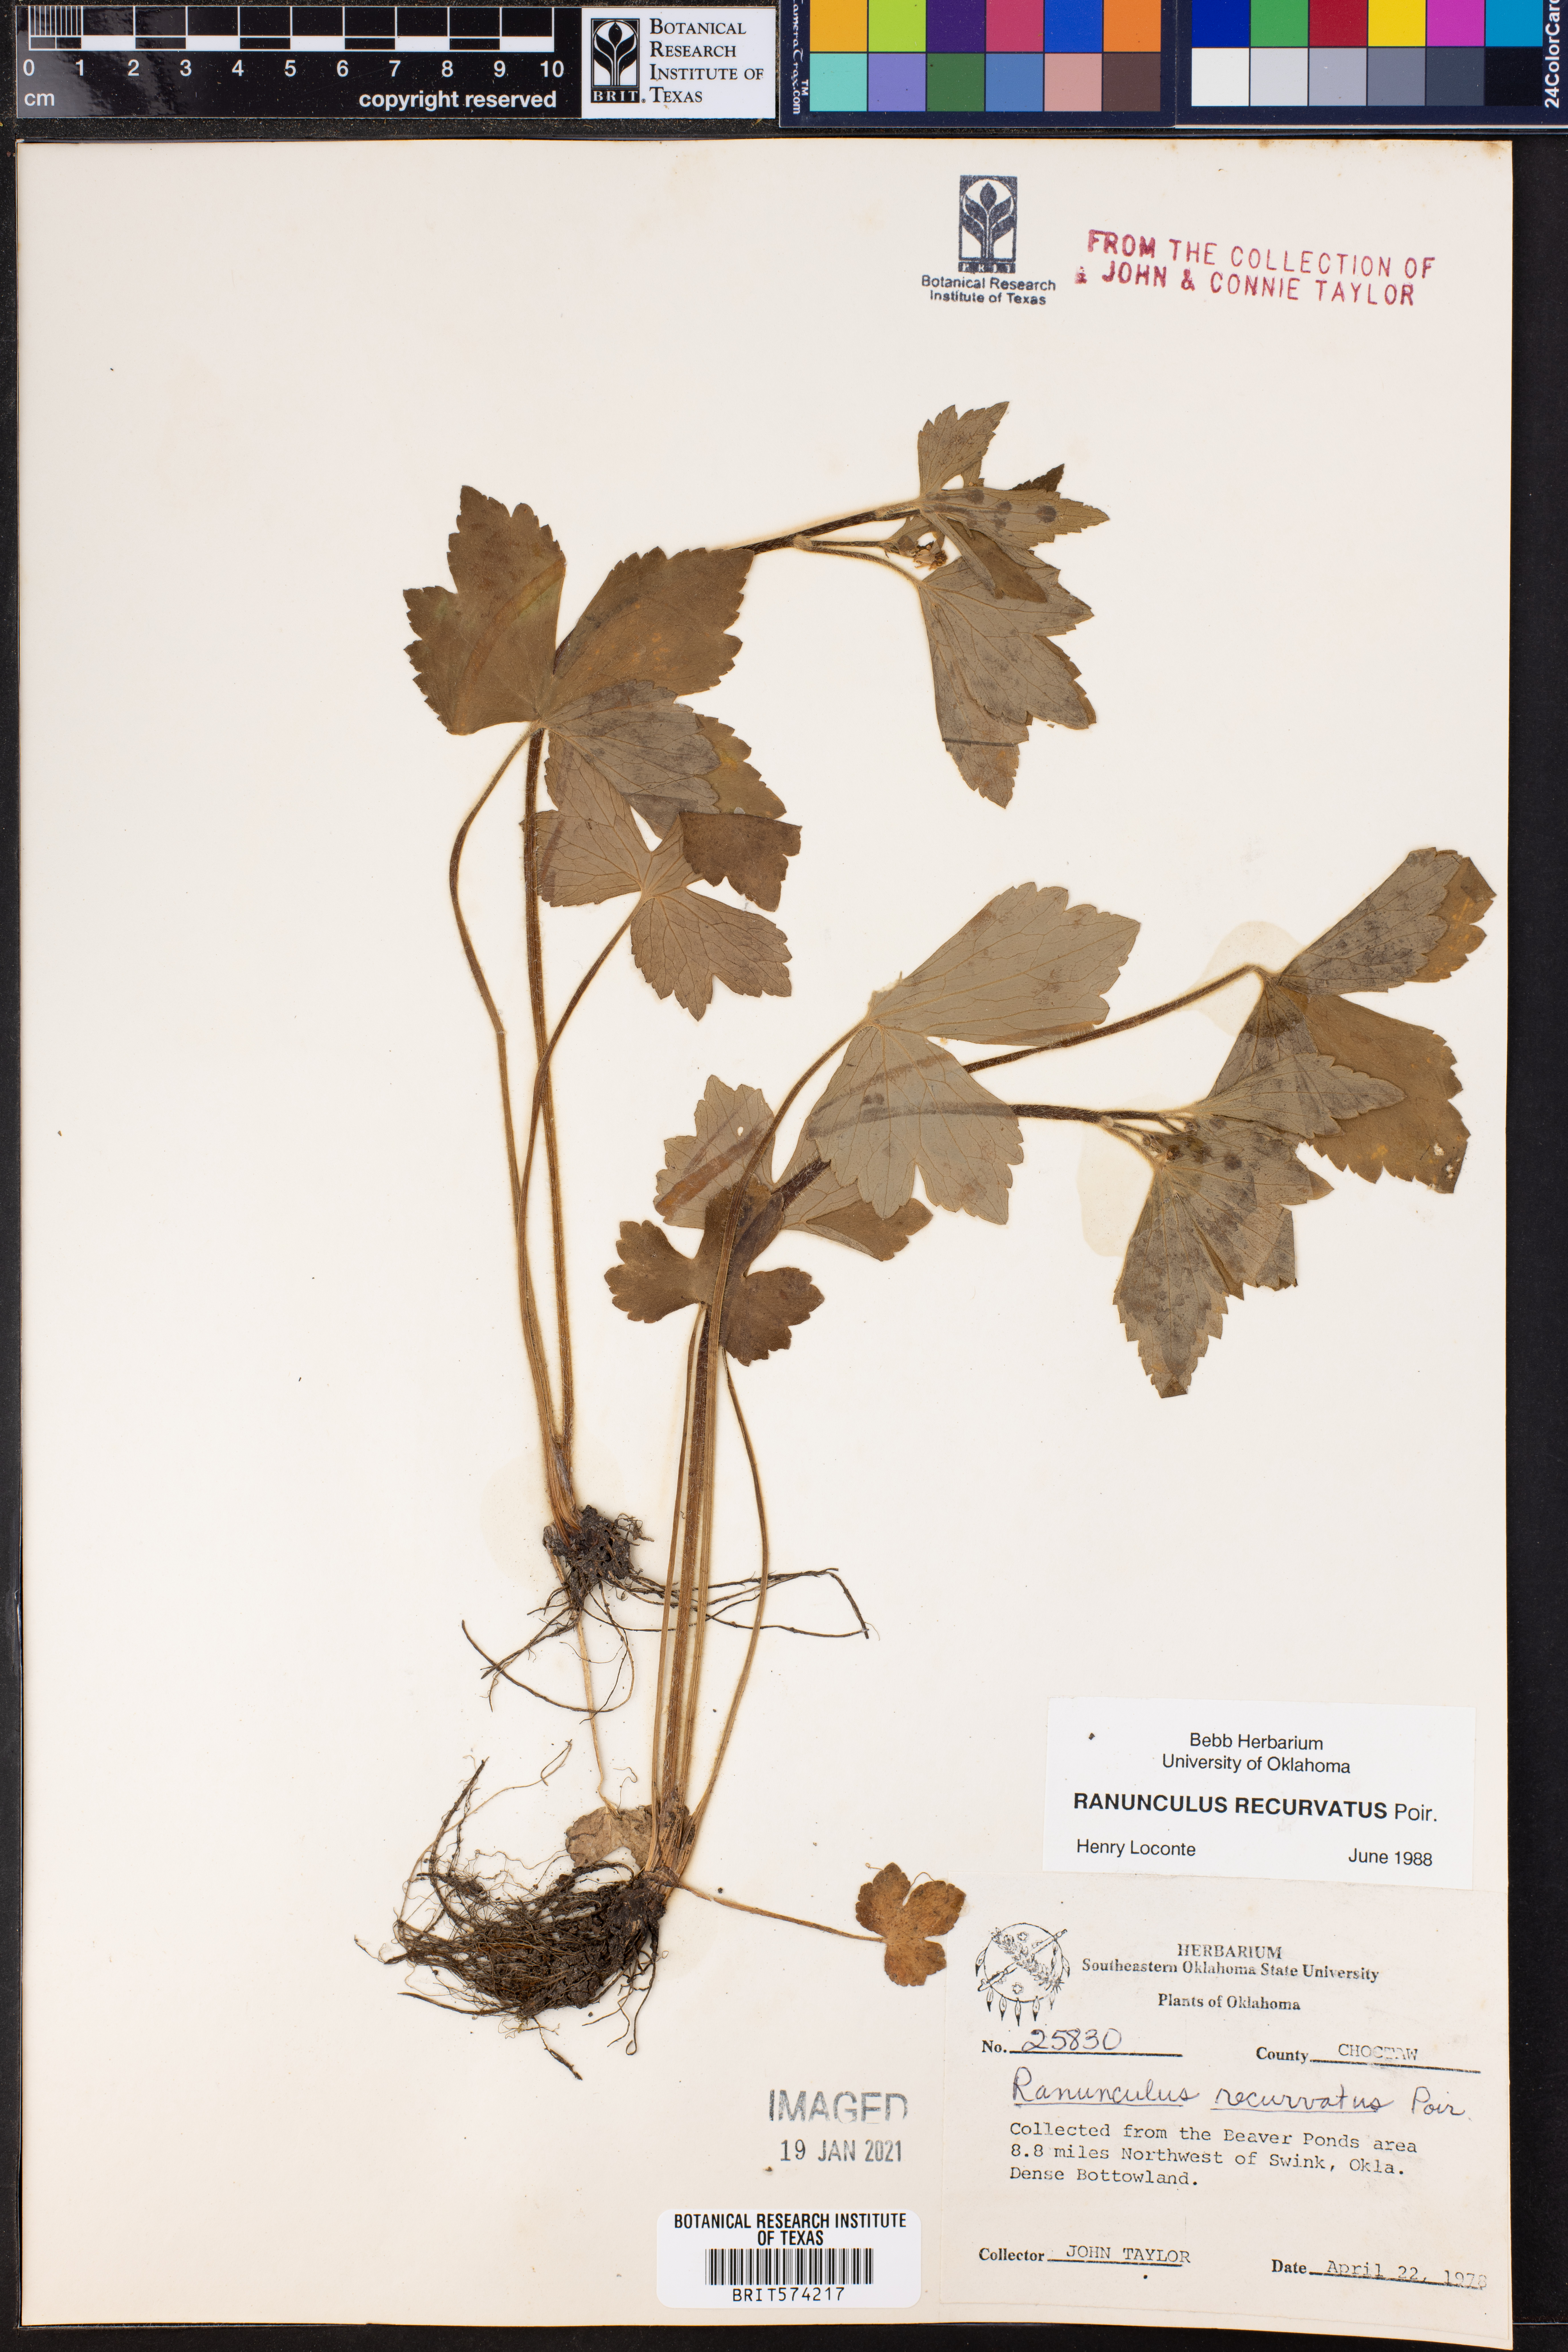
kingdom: Plantae
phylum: Tracheophyta
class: Magnoliopsida
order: Ranunculales
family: Ranunculaceae
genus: Ranunculus
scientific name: Ranunculus recurvatus
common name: Blisterwort
